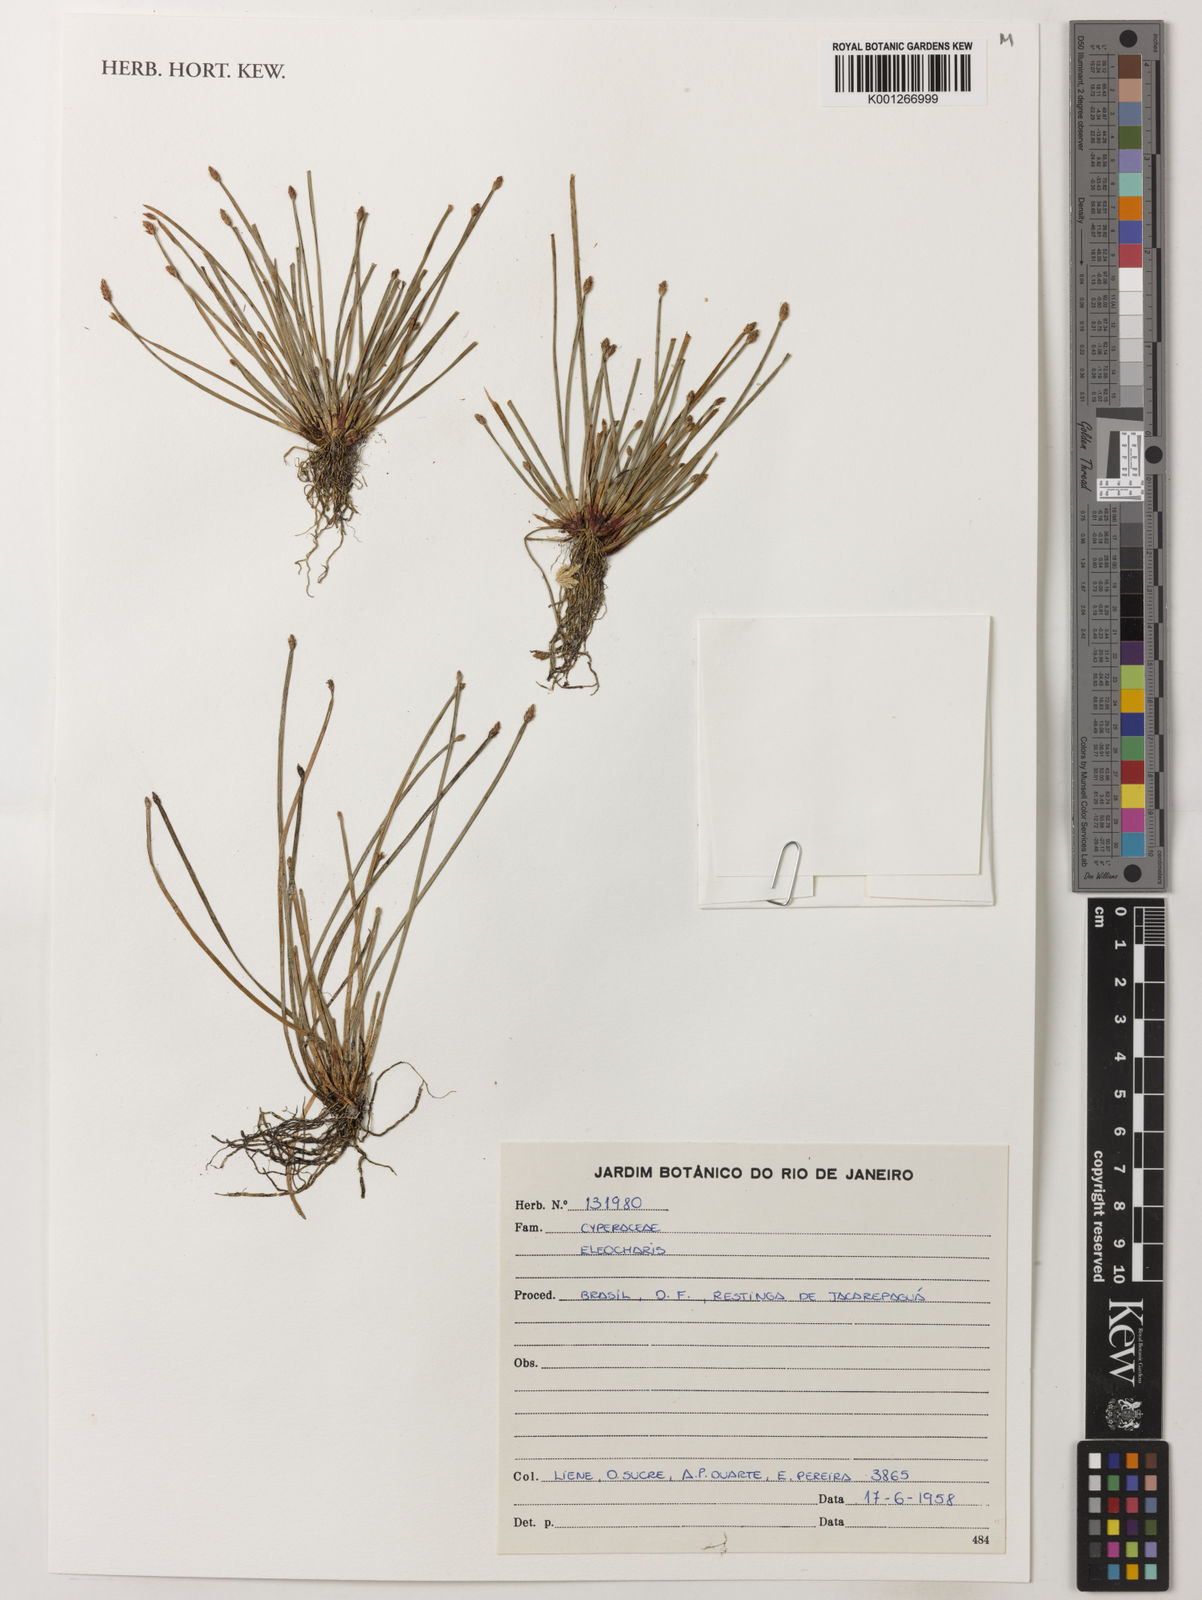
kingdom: Plantae
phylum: Tracheophyta
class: Liliopsida
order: Poales
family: Cyperaceae
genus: Eleocharis
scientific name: Eleocharis
